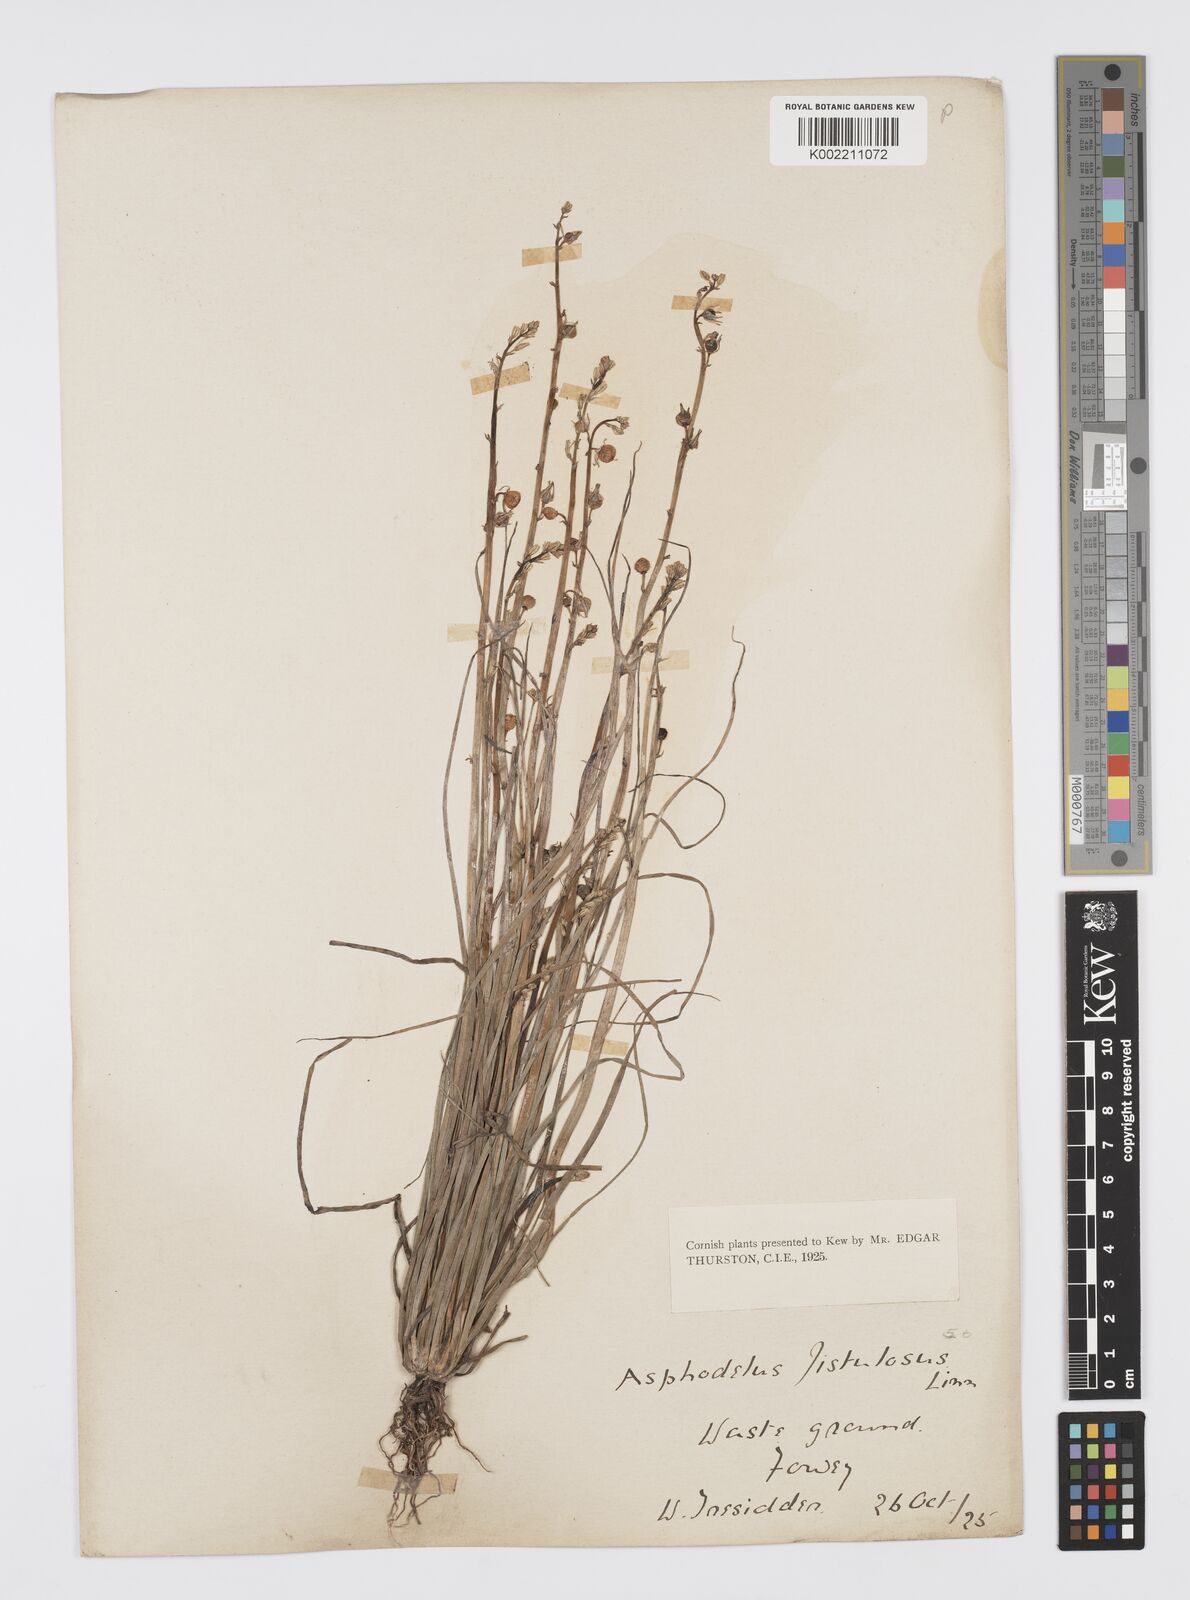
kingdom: Plantae
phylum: Tracheophyta
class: Liliopsida
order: Asparagales
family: Asphodelaceae
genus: Asphodelus
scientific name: Asphodelus tenuifolius
